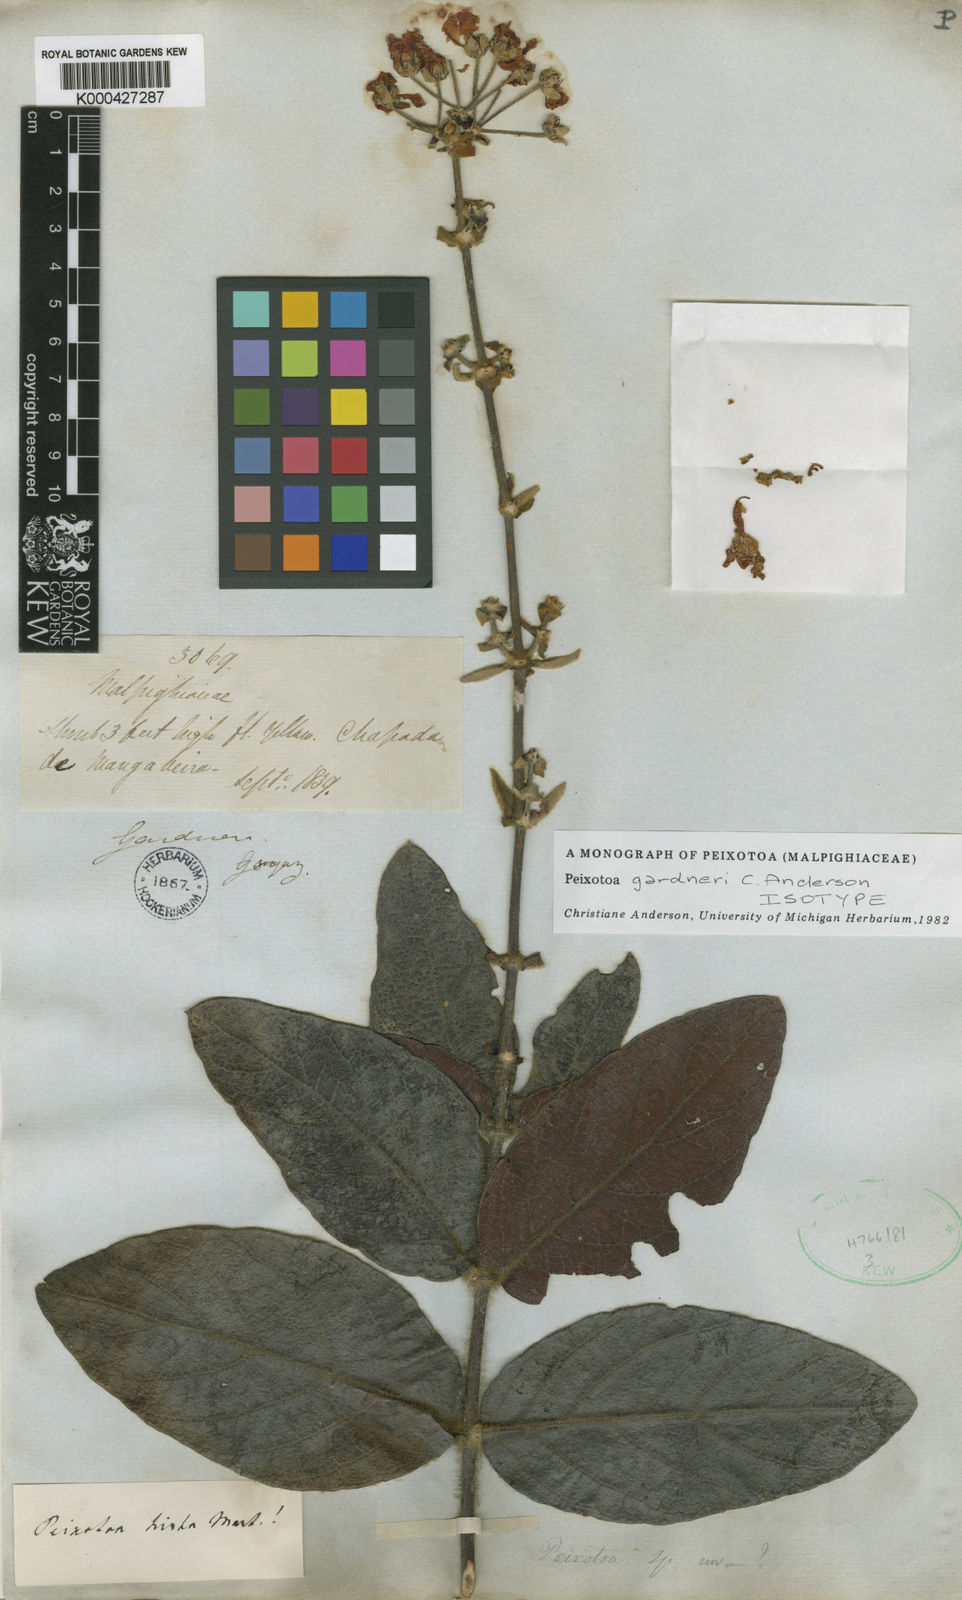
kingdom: Plantae
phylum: Tracheophyta
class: Magnoliopsida
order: Malpighiales
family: Malpighiaceae
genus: Peixotoa
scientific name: Peixotoa gardneri
